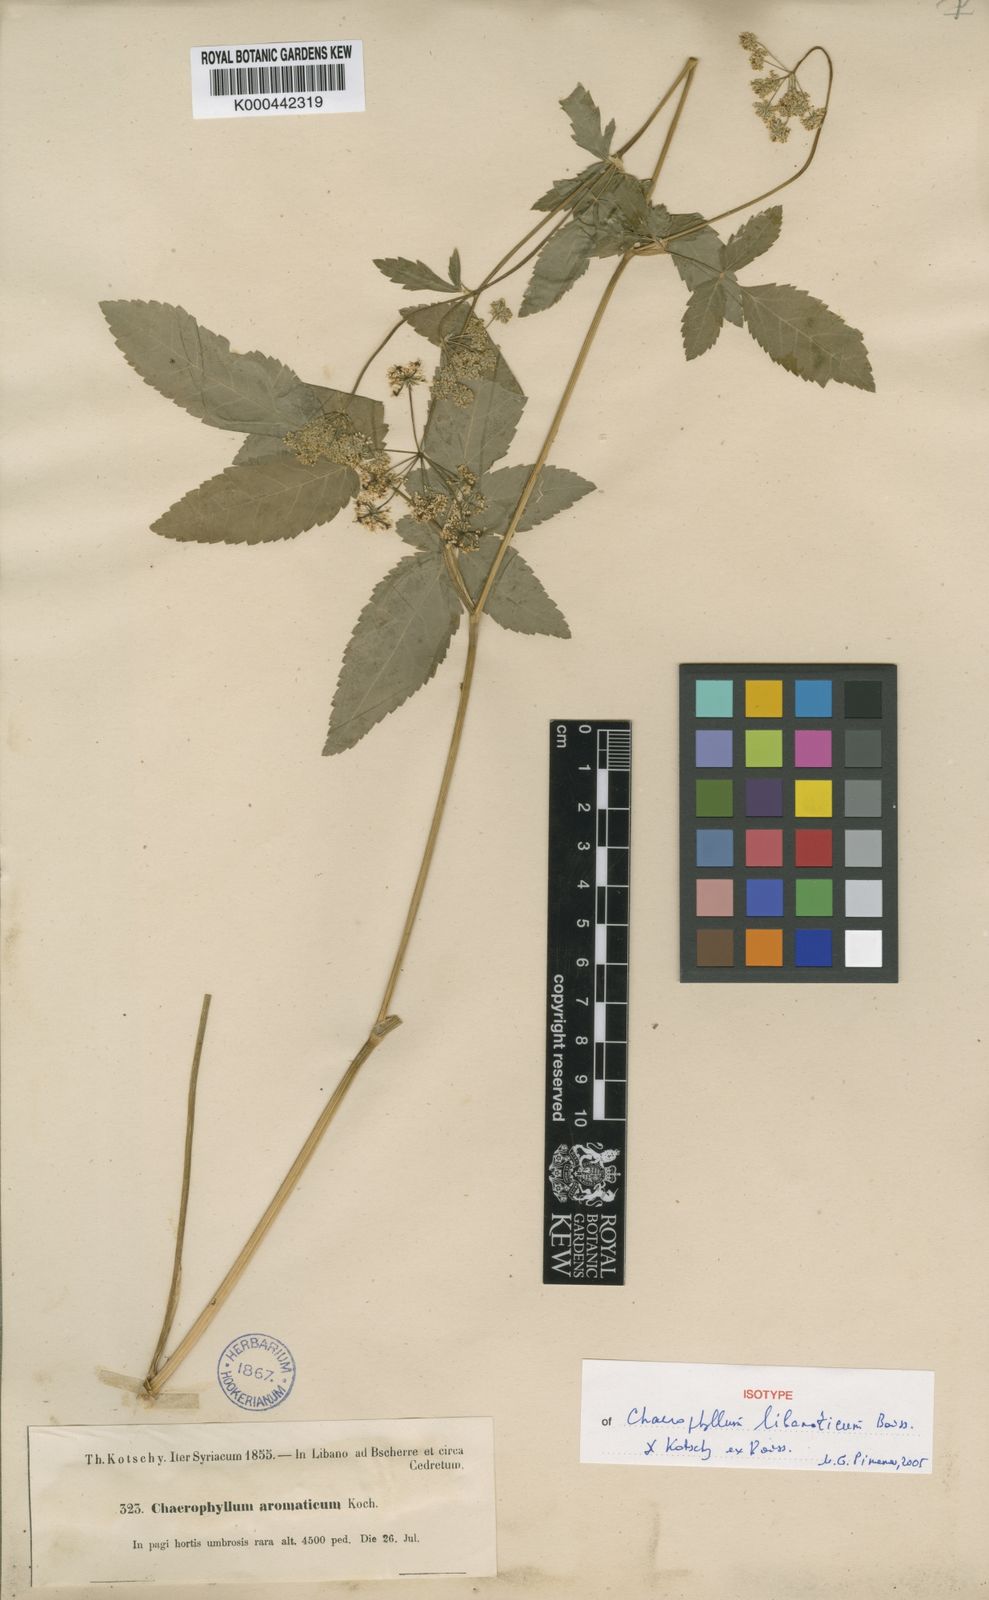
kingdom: Plantae
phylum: Tracheophyta
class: Magnoliopsida
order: Apiales
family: Apiaceae
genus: Chaerophyllum
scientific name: Chaerophyllum
